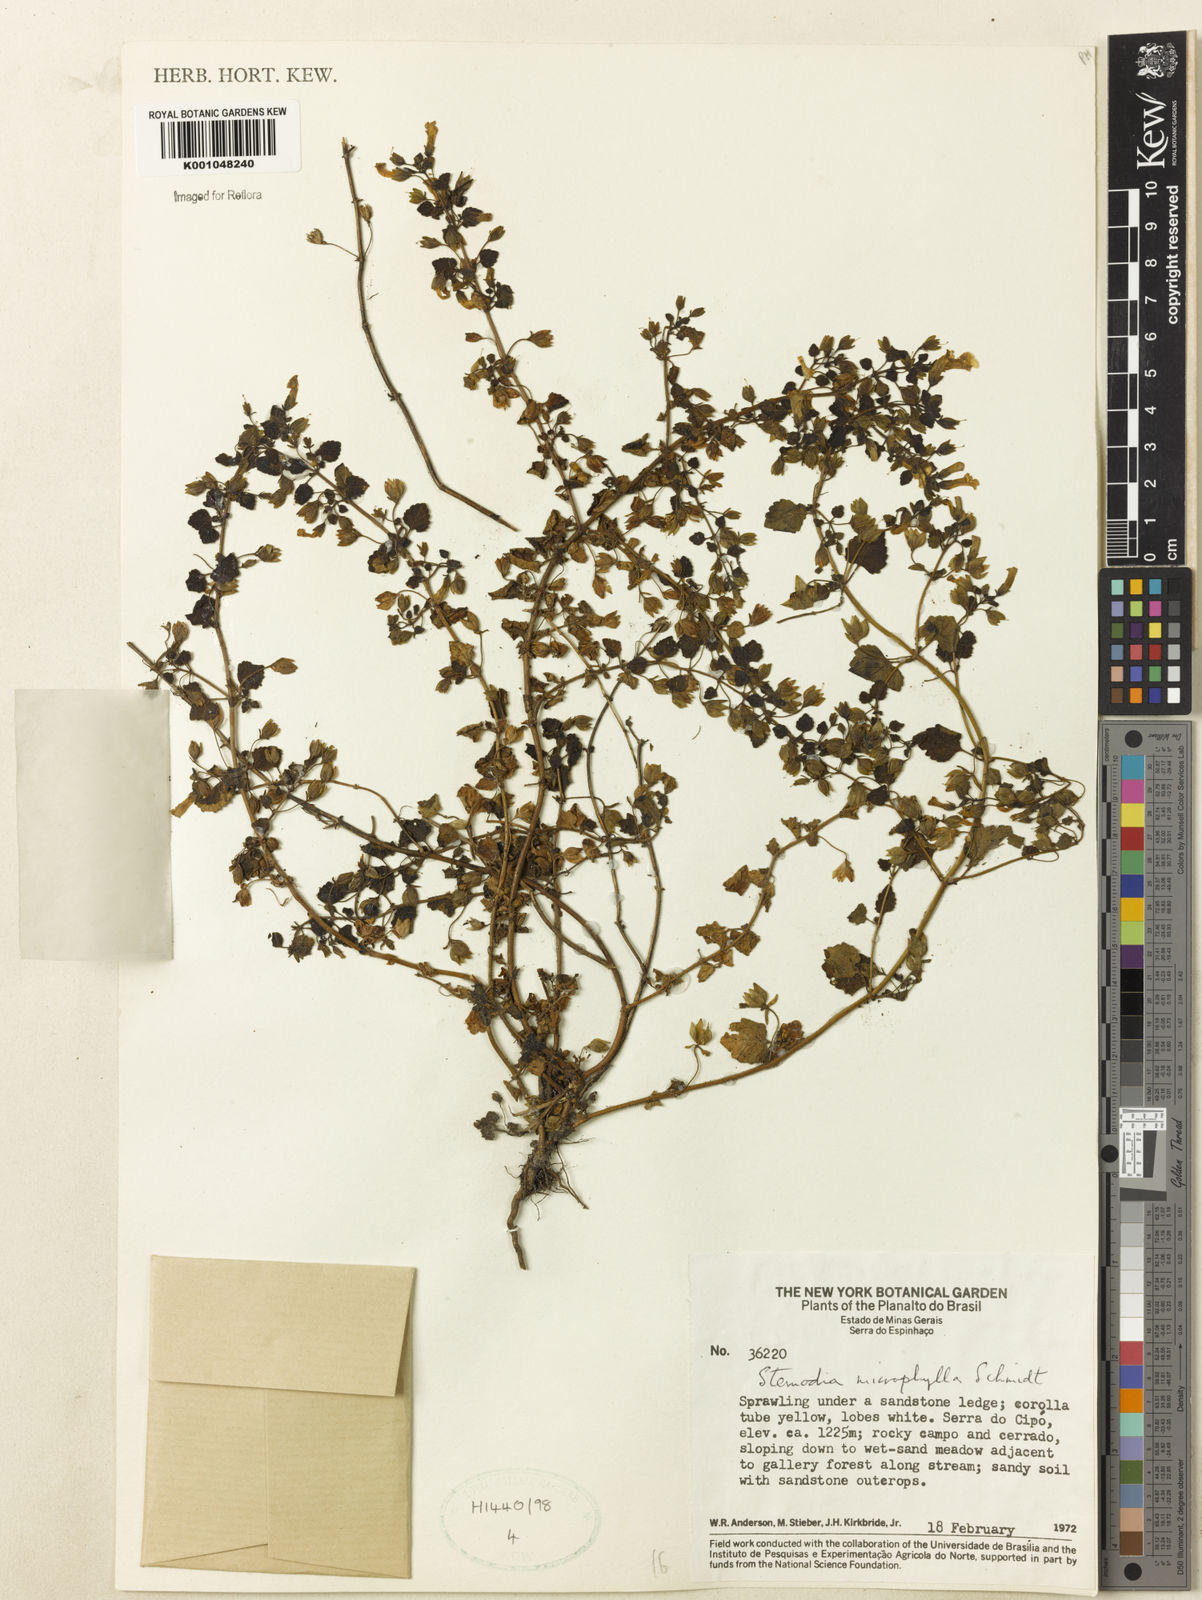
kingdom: Plantae
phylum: Tracheophyta
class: Magnoliopsida
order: Lamiales
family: Plantaginaceae
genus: Umbraria
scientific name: Umbraria microphylla
